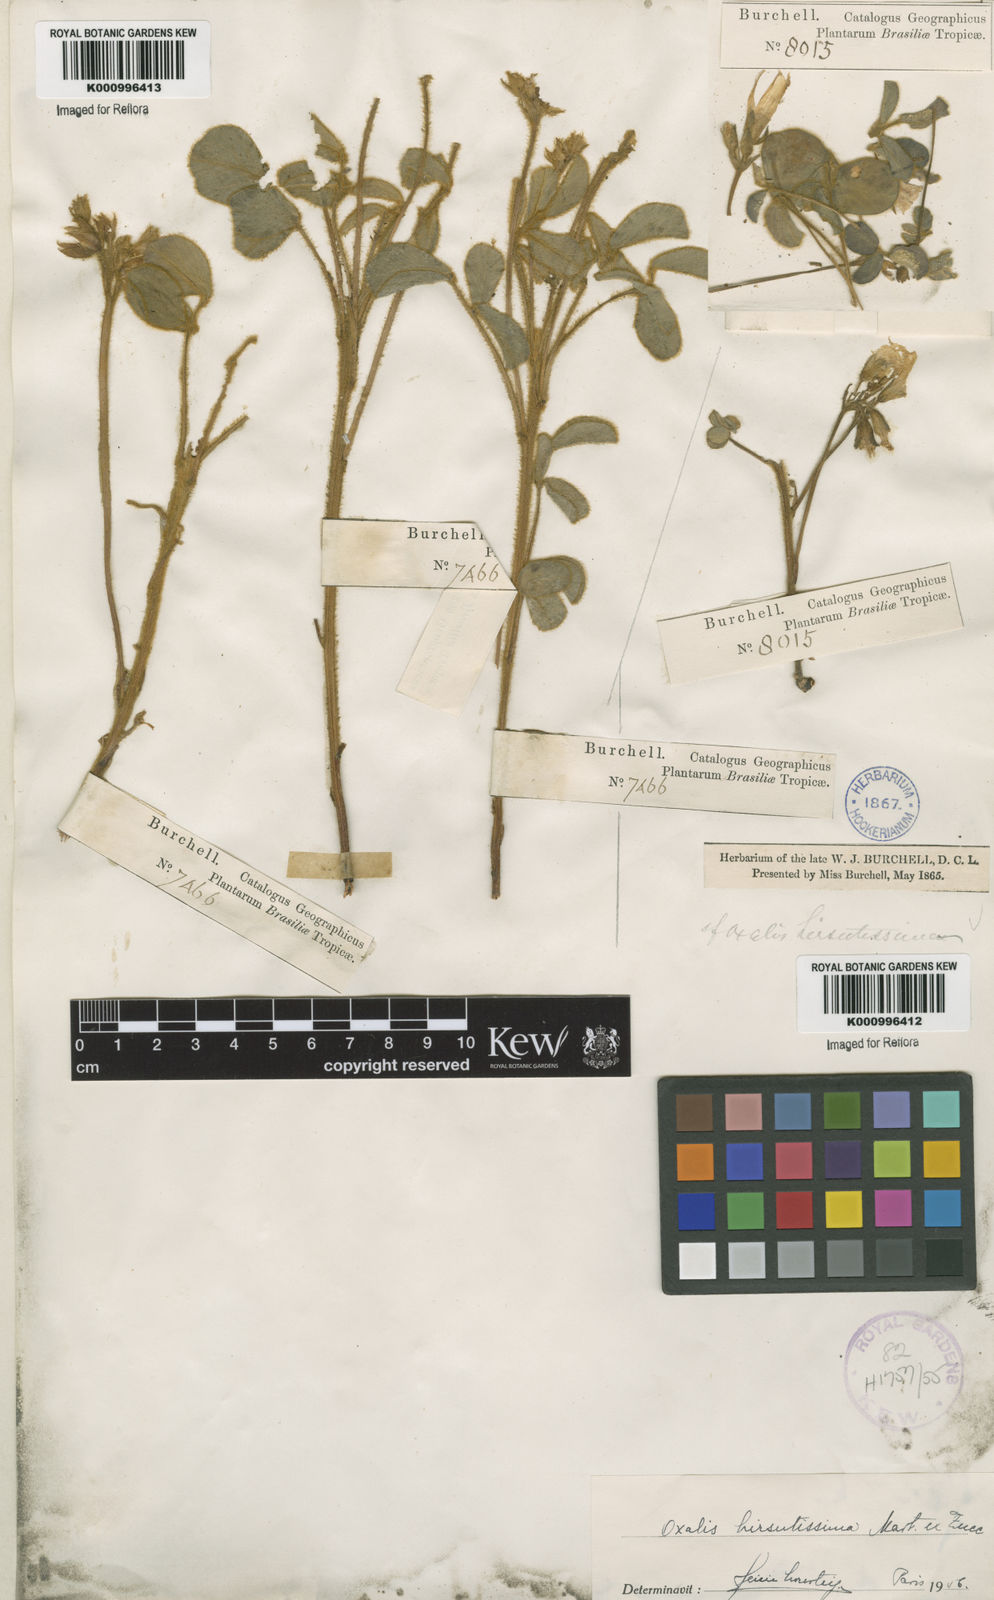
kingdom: Plantae
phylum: Tracheophyta
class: Magnoliopsida
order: Oxalidales
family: Oxalidaceae
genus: Oxalis
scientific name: Oxalis hirsutissima
